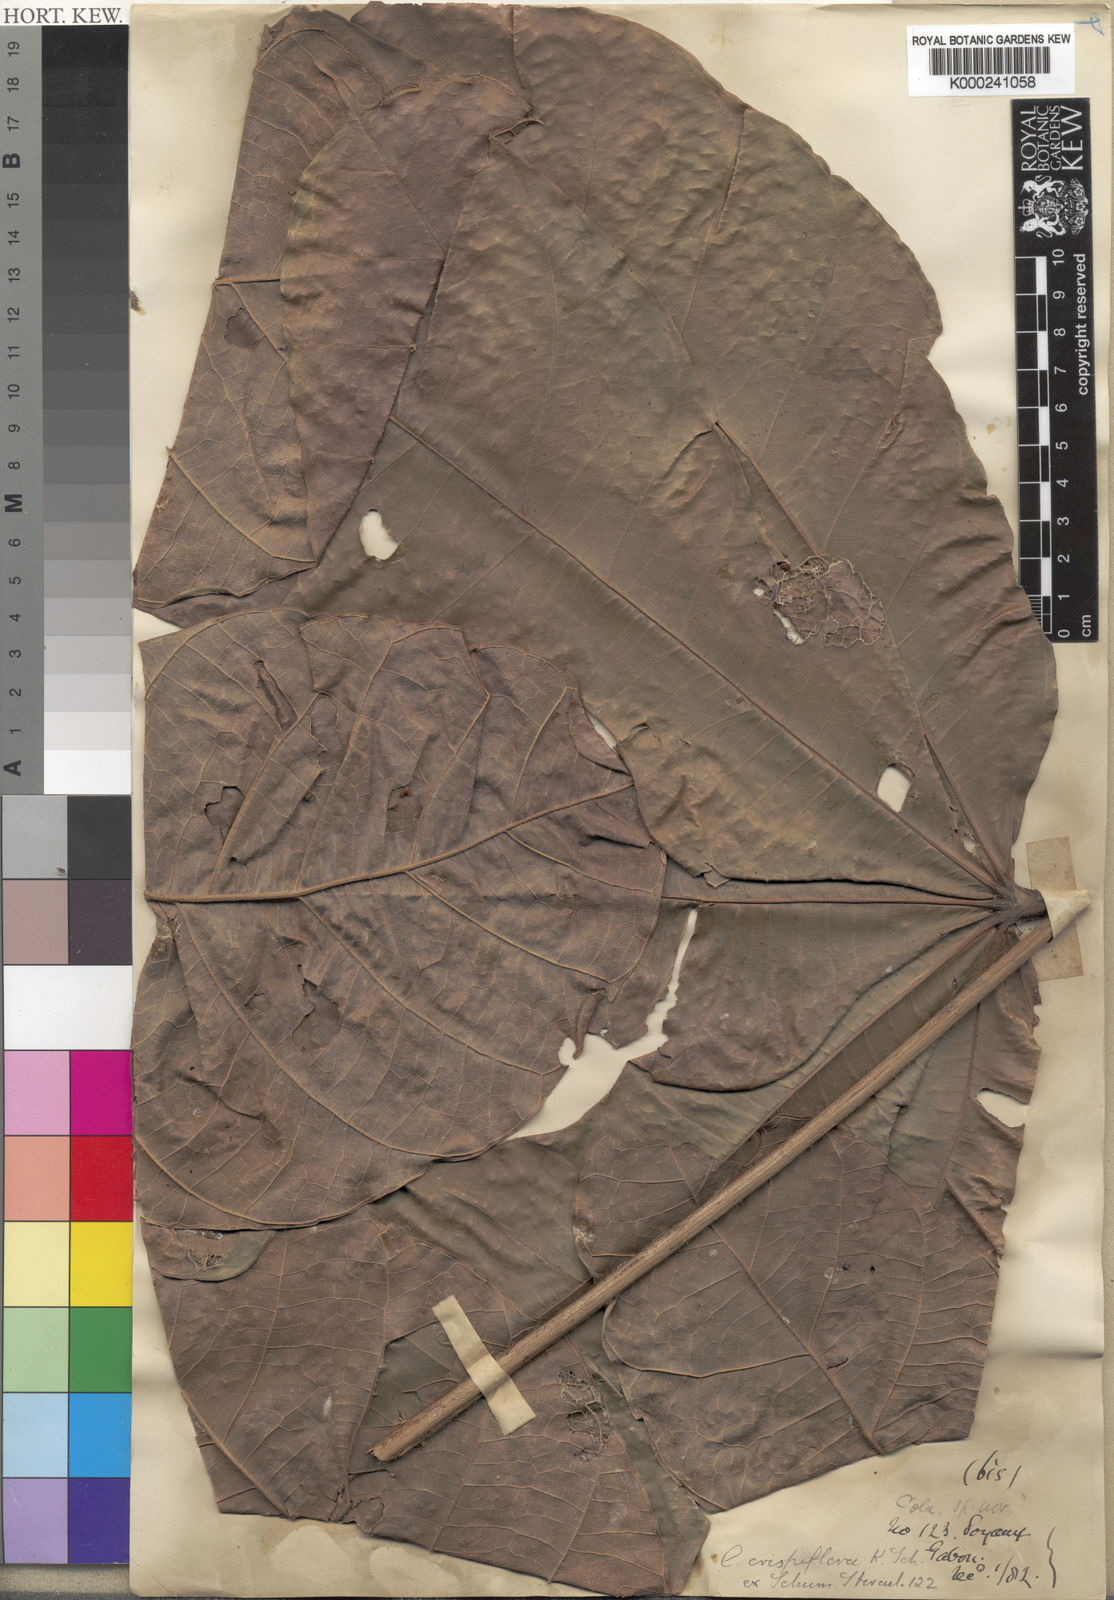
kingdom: Plantae
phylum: Tracheophyta
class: Magnoliopsida
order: Malvales
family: Malvaceae
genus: Cola
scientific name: Cola crispiflora
